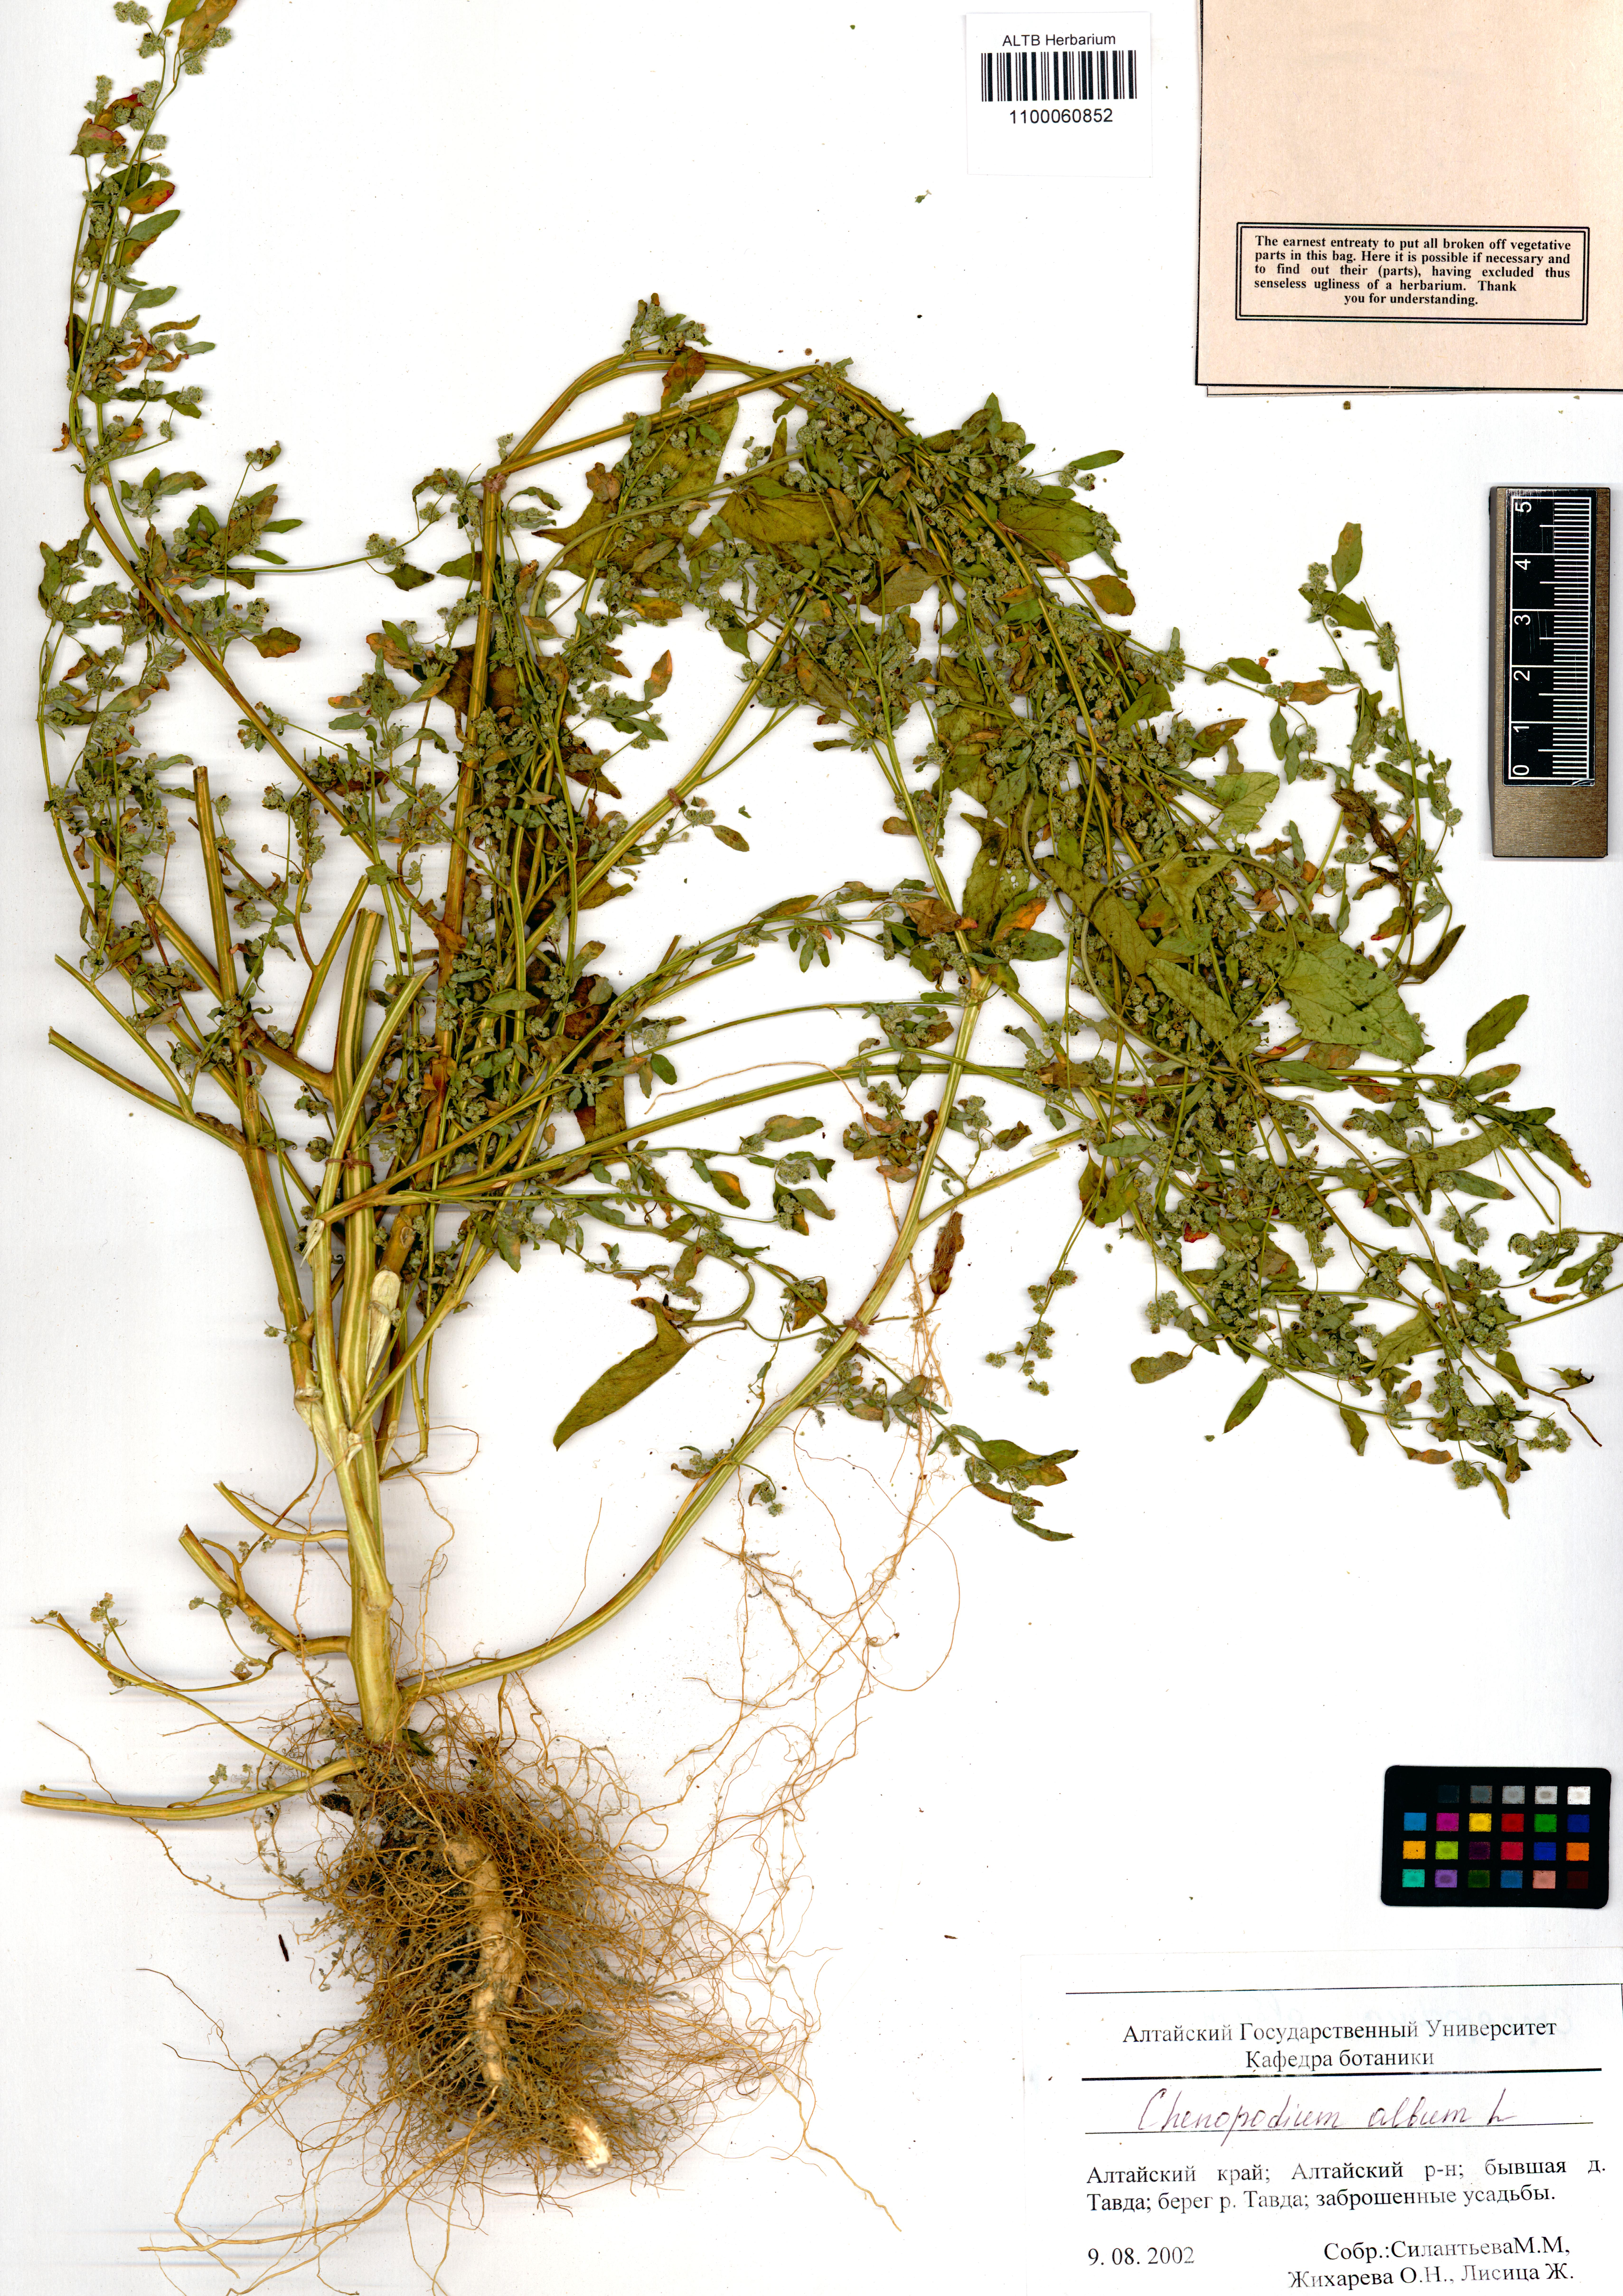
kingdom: Plantae
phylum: Tracheophyta
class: Magnoliopsida
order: Caryophyllales
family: Amaranthaceae
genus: Chenopodium
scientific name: Chenopodium album
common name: Fat-hen
